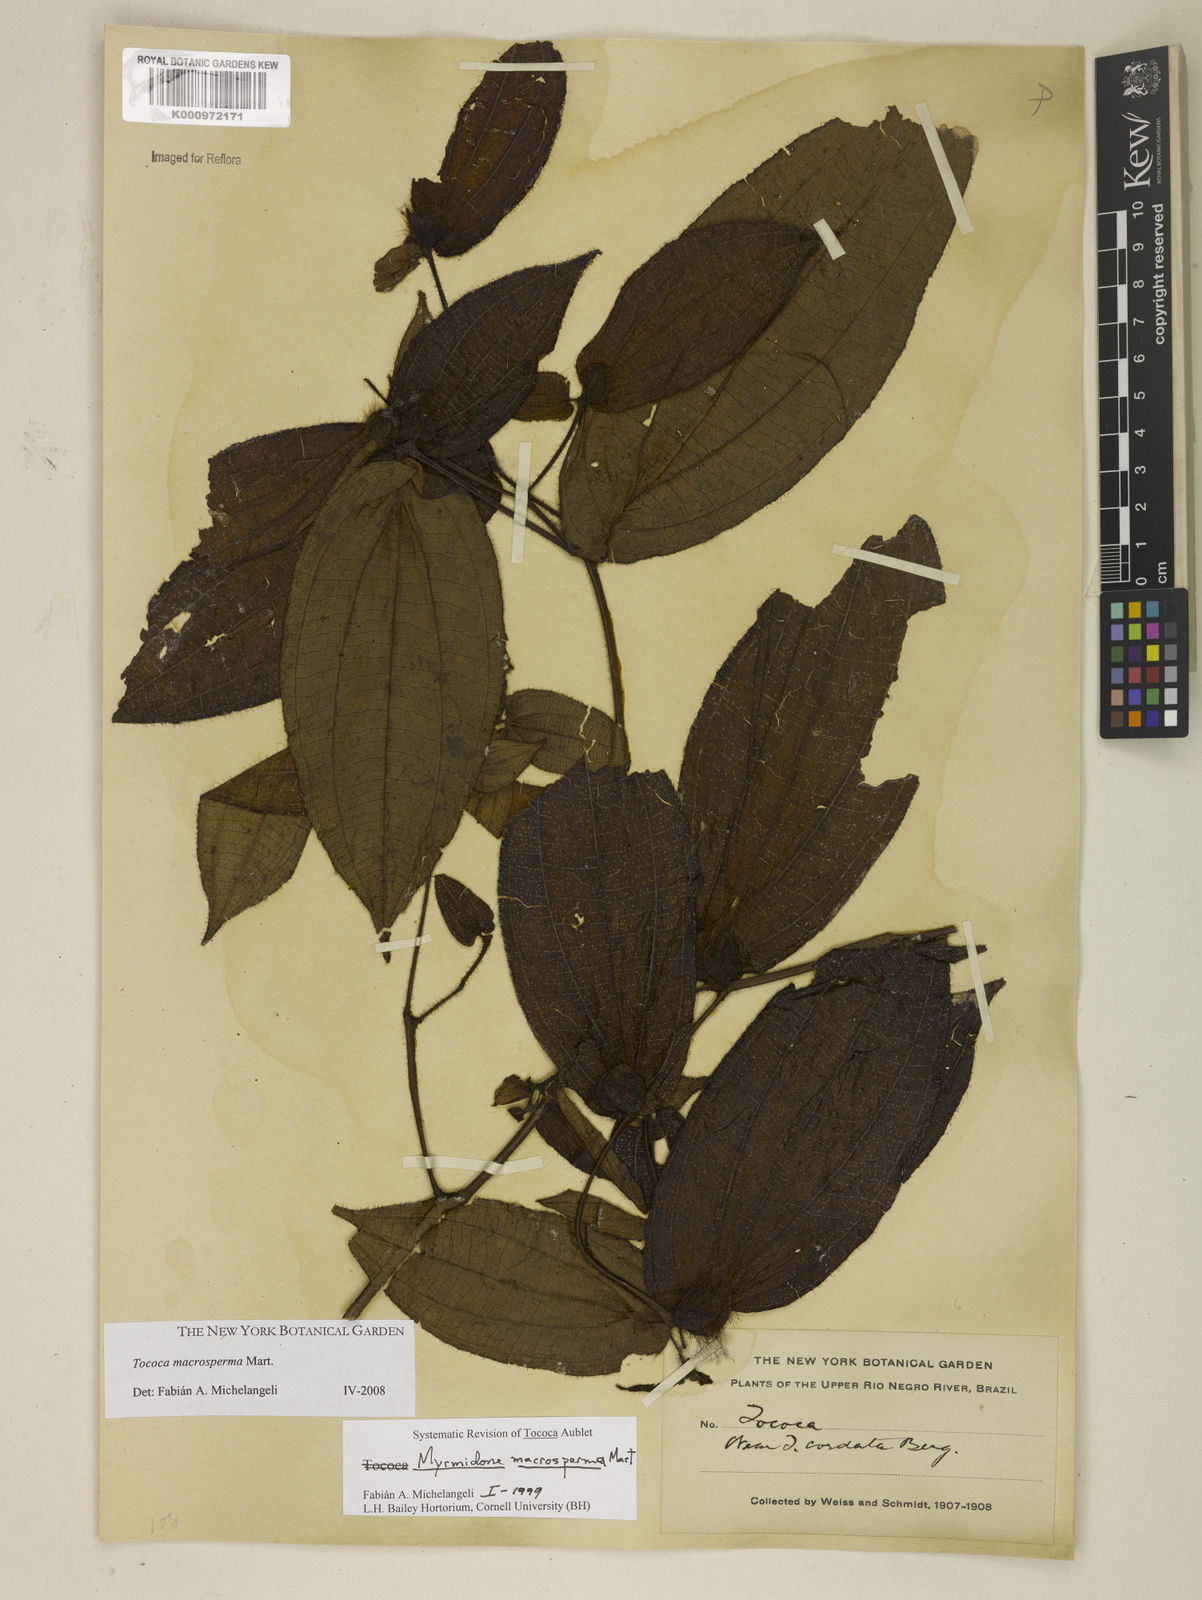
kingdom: Plantae
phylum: Tracheophyta
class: Magnoliopsida
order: Myrtales
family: Melastomataceae
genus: Miconia
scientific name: Miconia macrosperma
